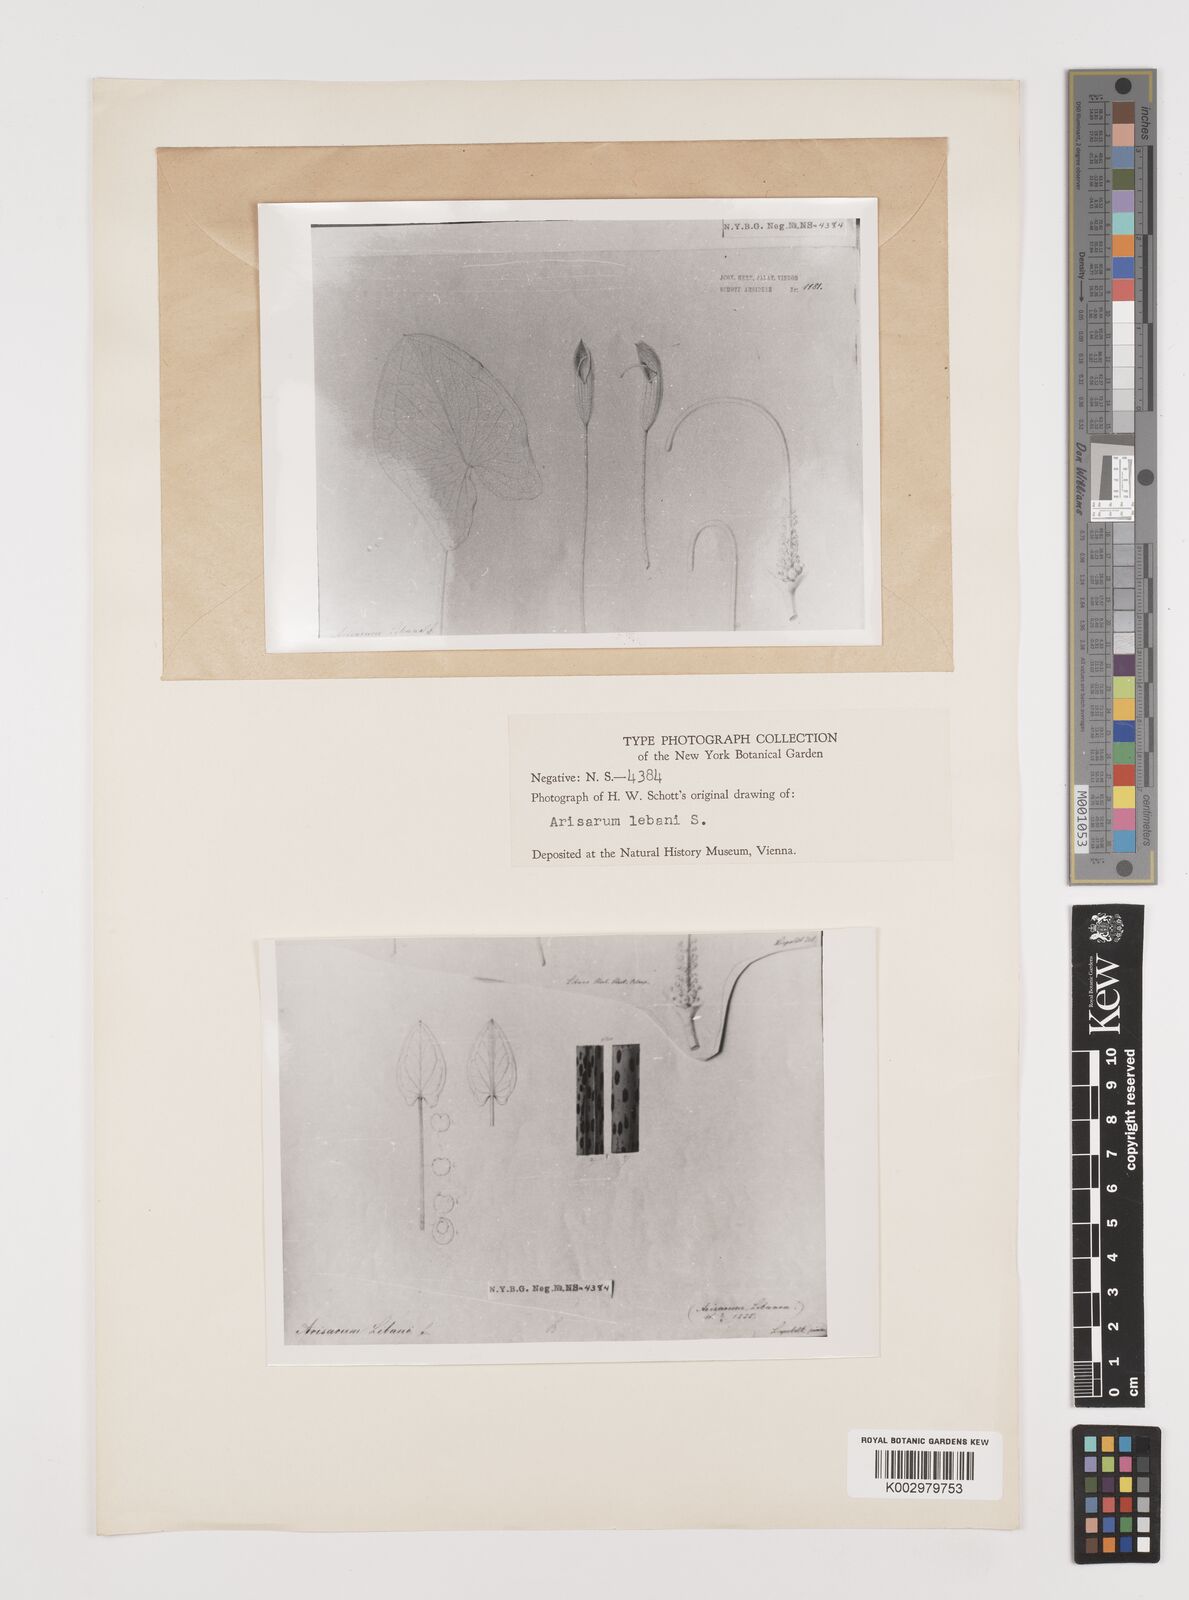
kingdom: Plantae
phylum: Tracheophyta
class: Liliopsida
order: Alismatales
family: Araceae
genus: Arisarum
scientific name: Arisarum vulgare
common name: Common arisarum
